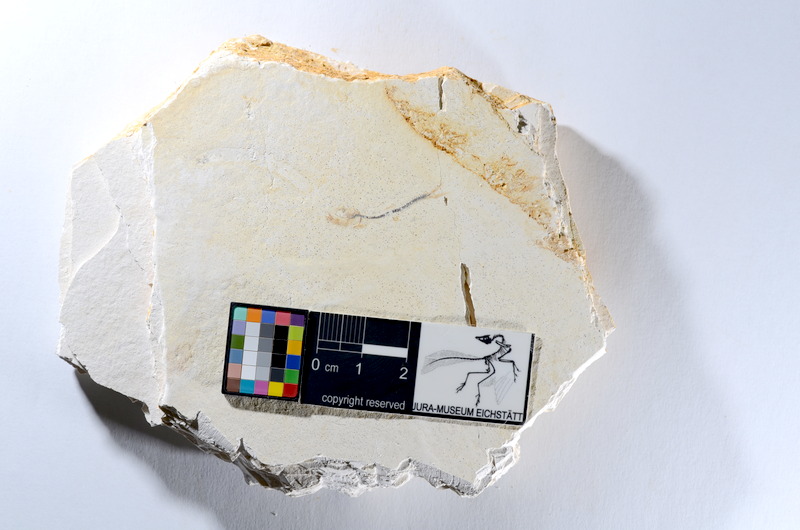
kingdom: Animalia
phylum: Chordata
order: Salmoniformes
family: Orthogonikleithridae
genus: Orthogonikleithrus
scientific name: Orthogonikleithrus hoelli
